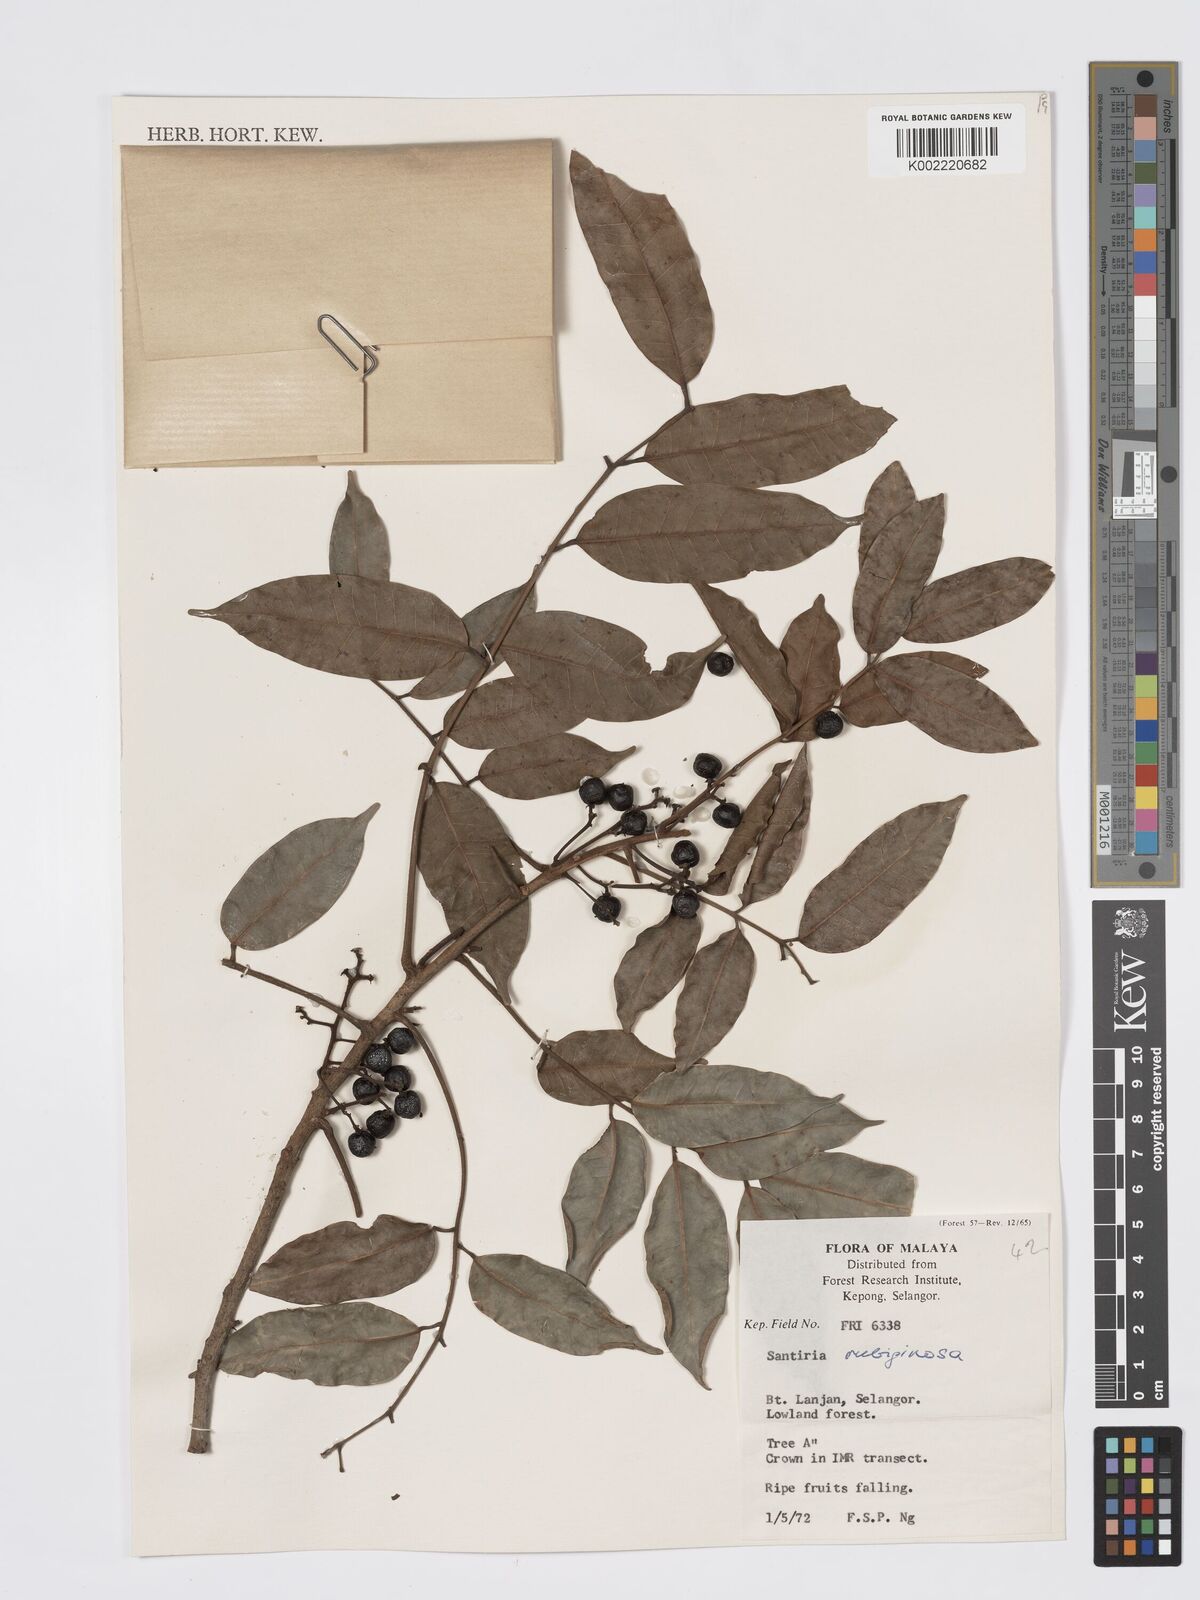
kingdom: Plantae
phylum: Tracheophyta
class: Magnoliopsida
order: Sapindales
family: Burseraceae
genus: Santiria
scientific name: Santiria rubiginosa
